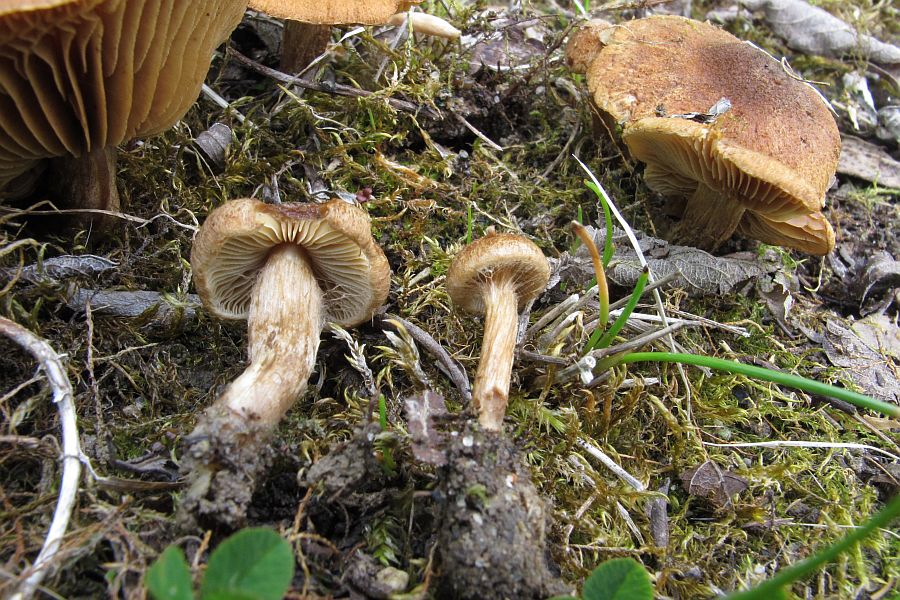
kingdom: Fungi
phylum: Basidiomycota
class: Agaricomycetes
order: Agaricales
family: Inocybaceae
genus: Inocybe
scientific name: Inocybe dulcamara
